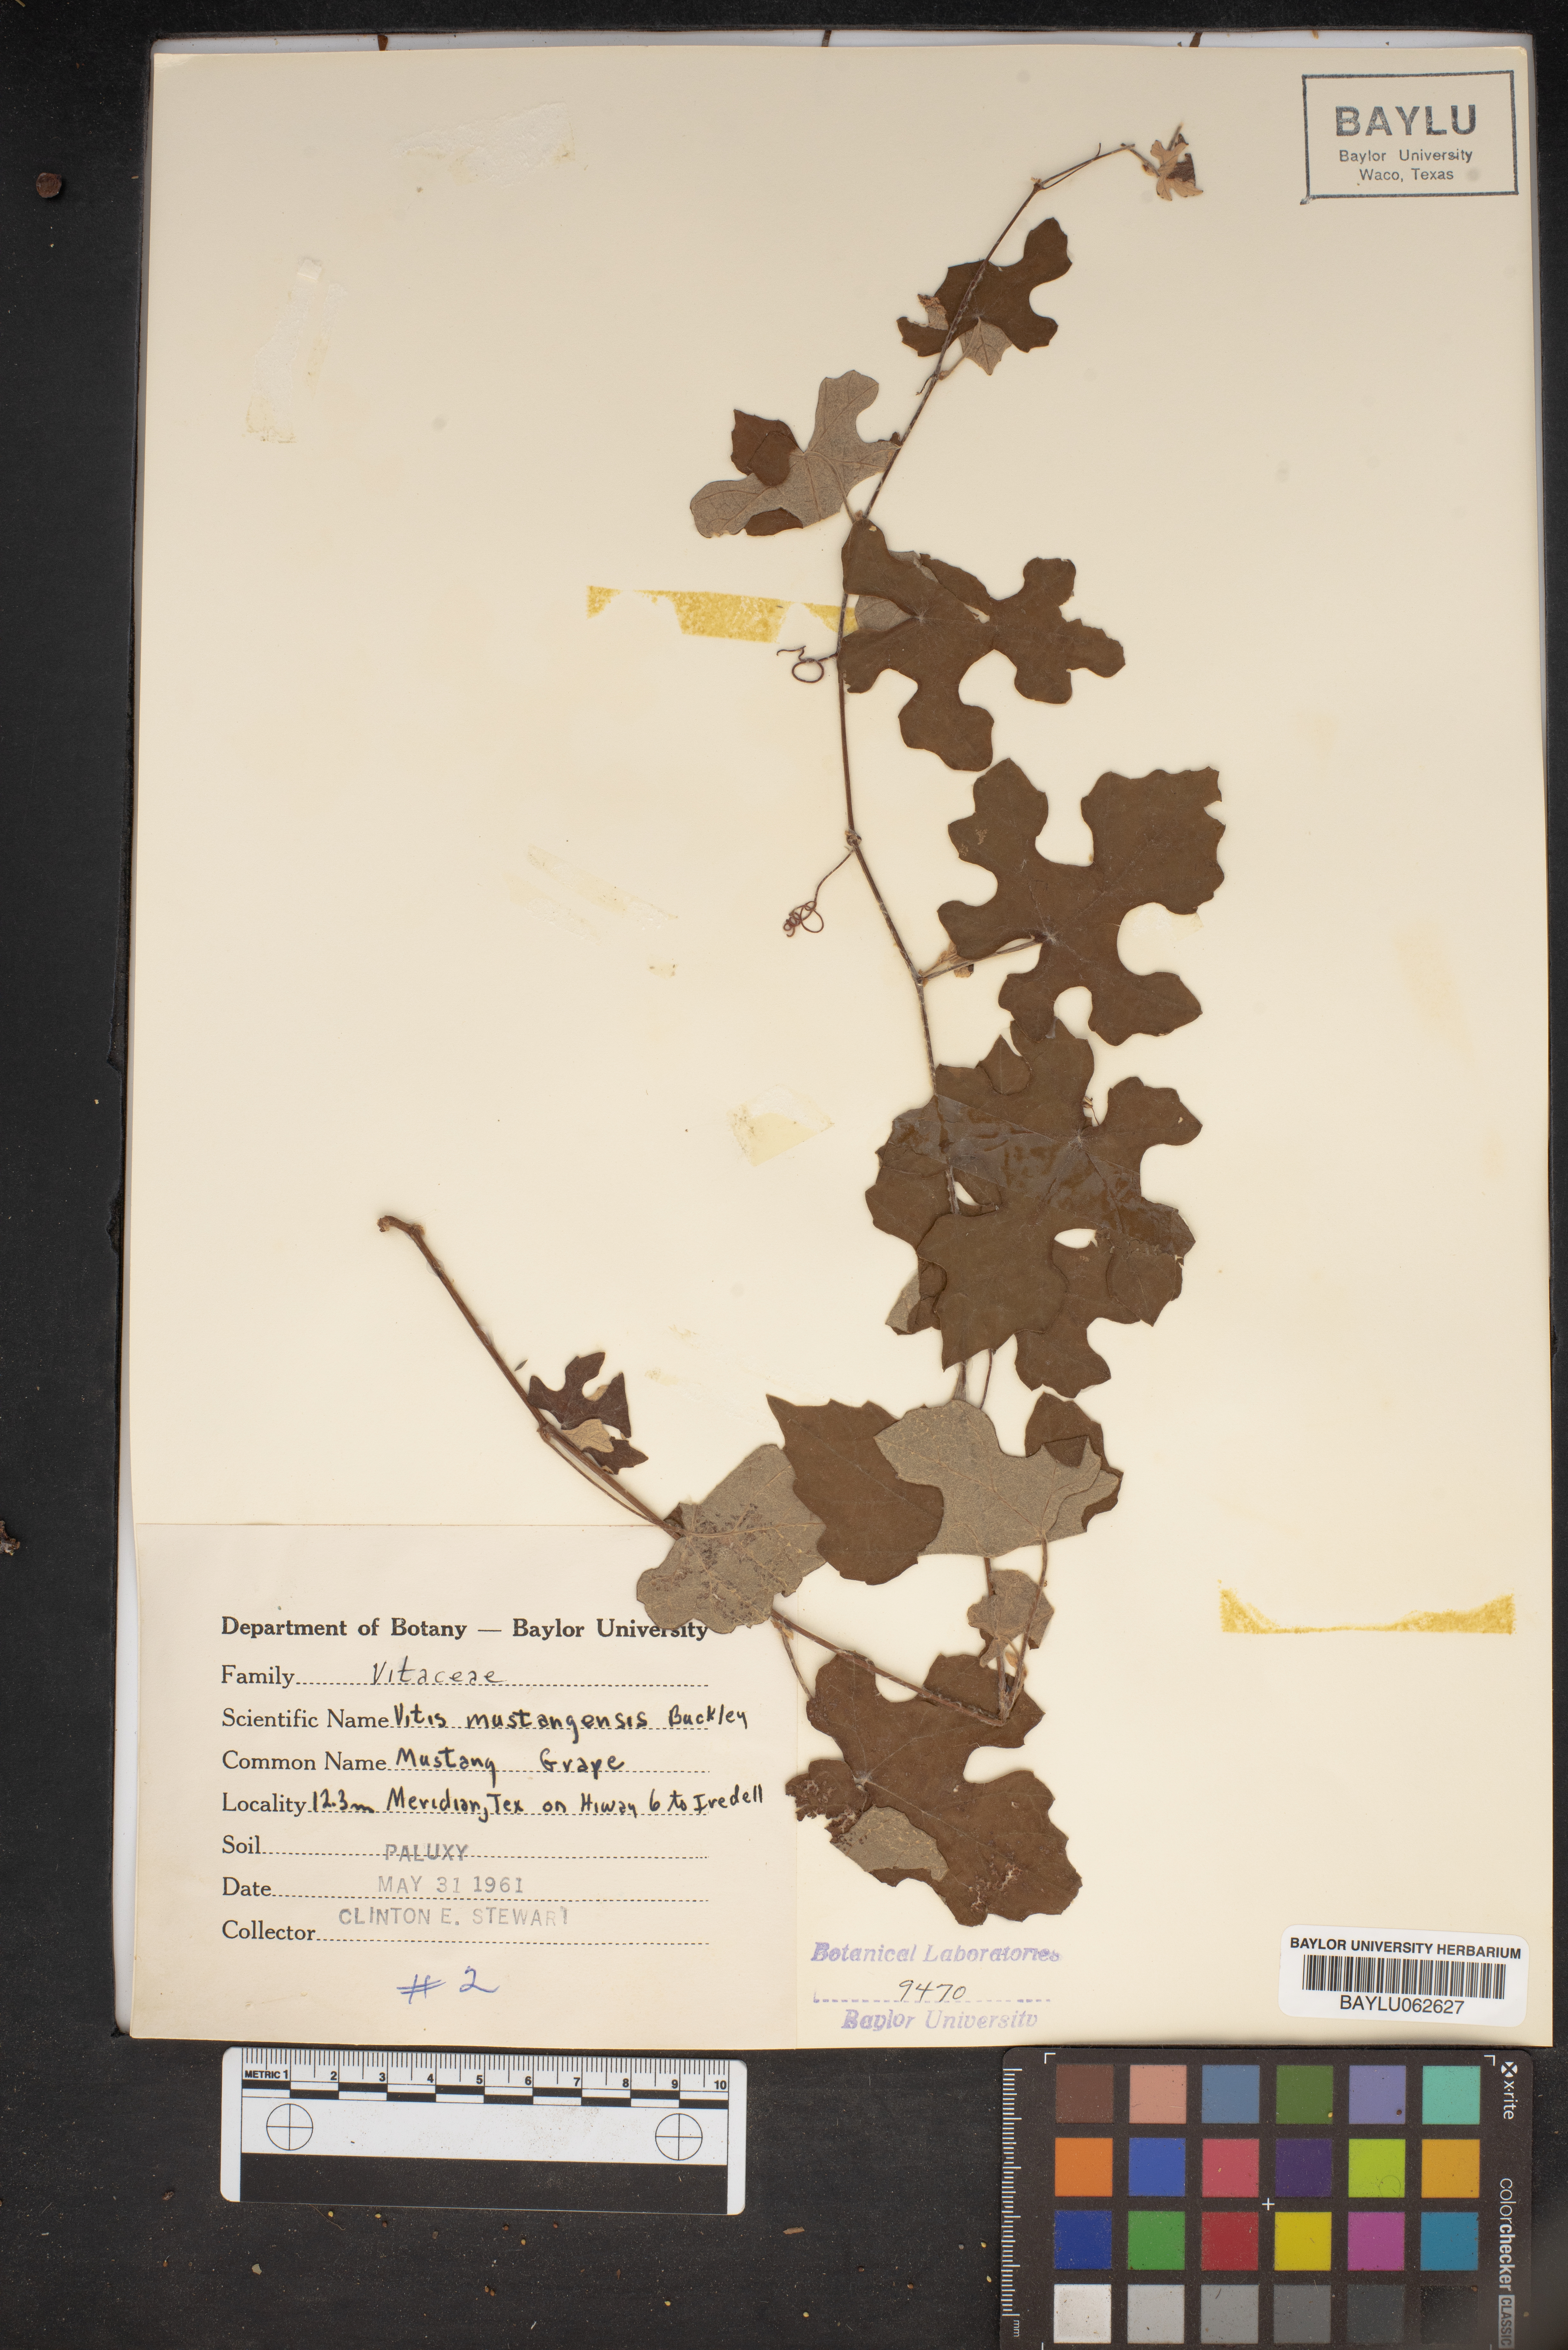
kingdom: Plantae
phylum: Tracheophyta
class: Magnoliopsida
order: Vitales
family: Vitaceae
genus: Vitis
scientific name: Vitis mustangensis
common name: Mustang grape
